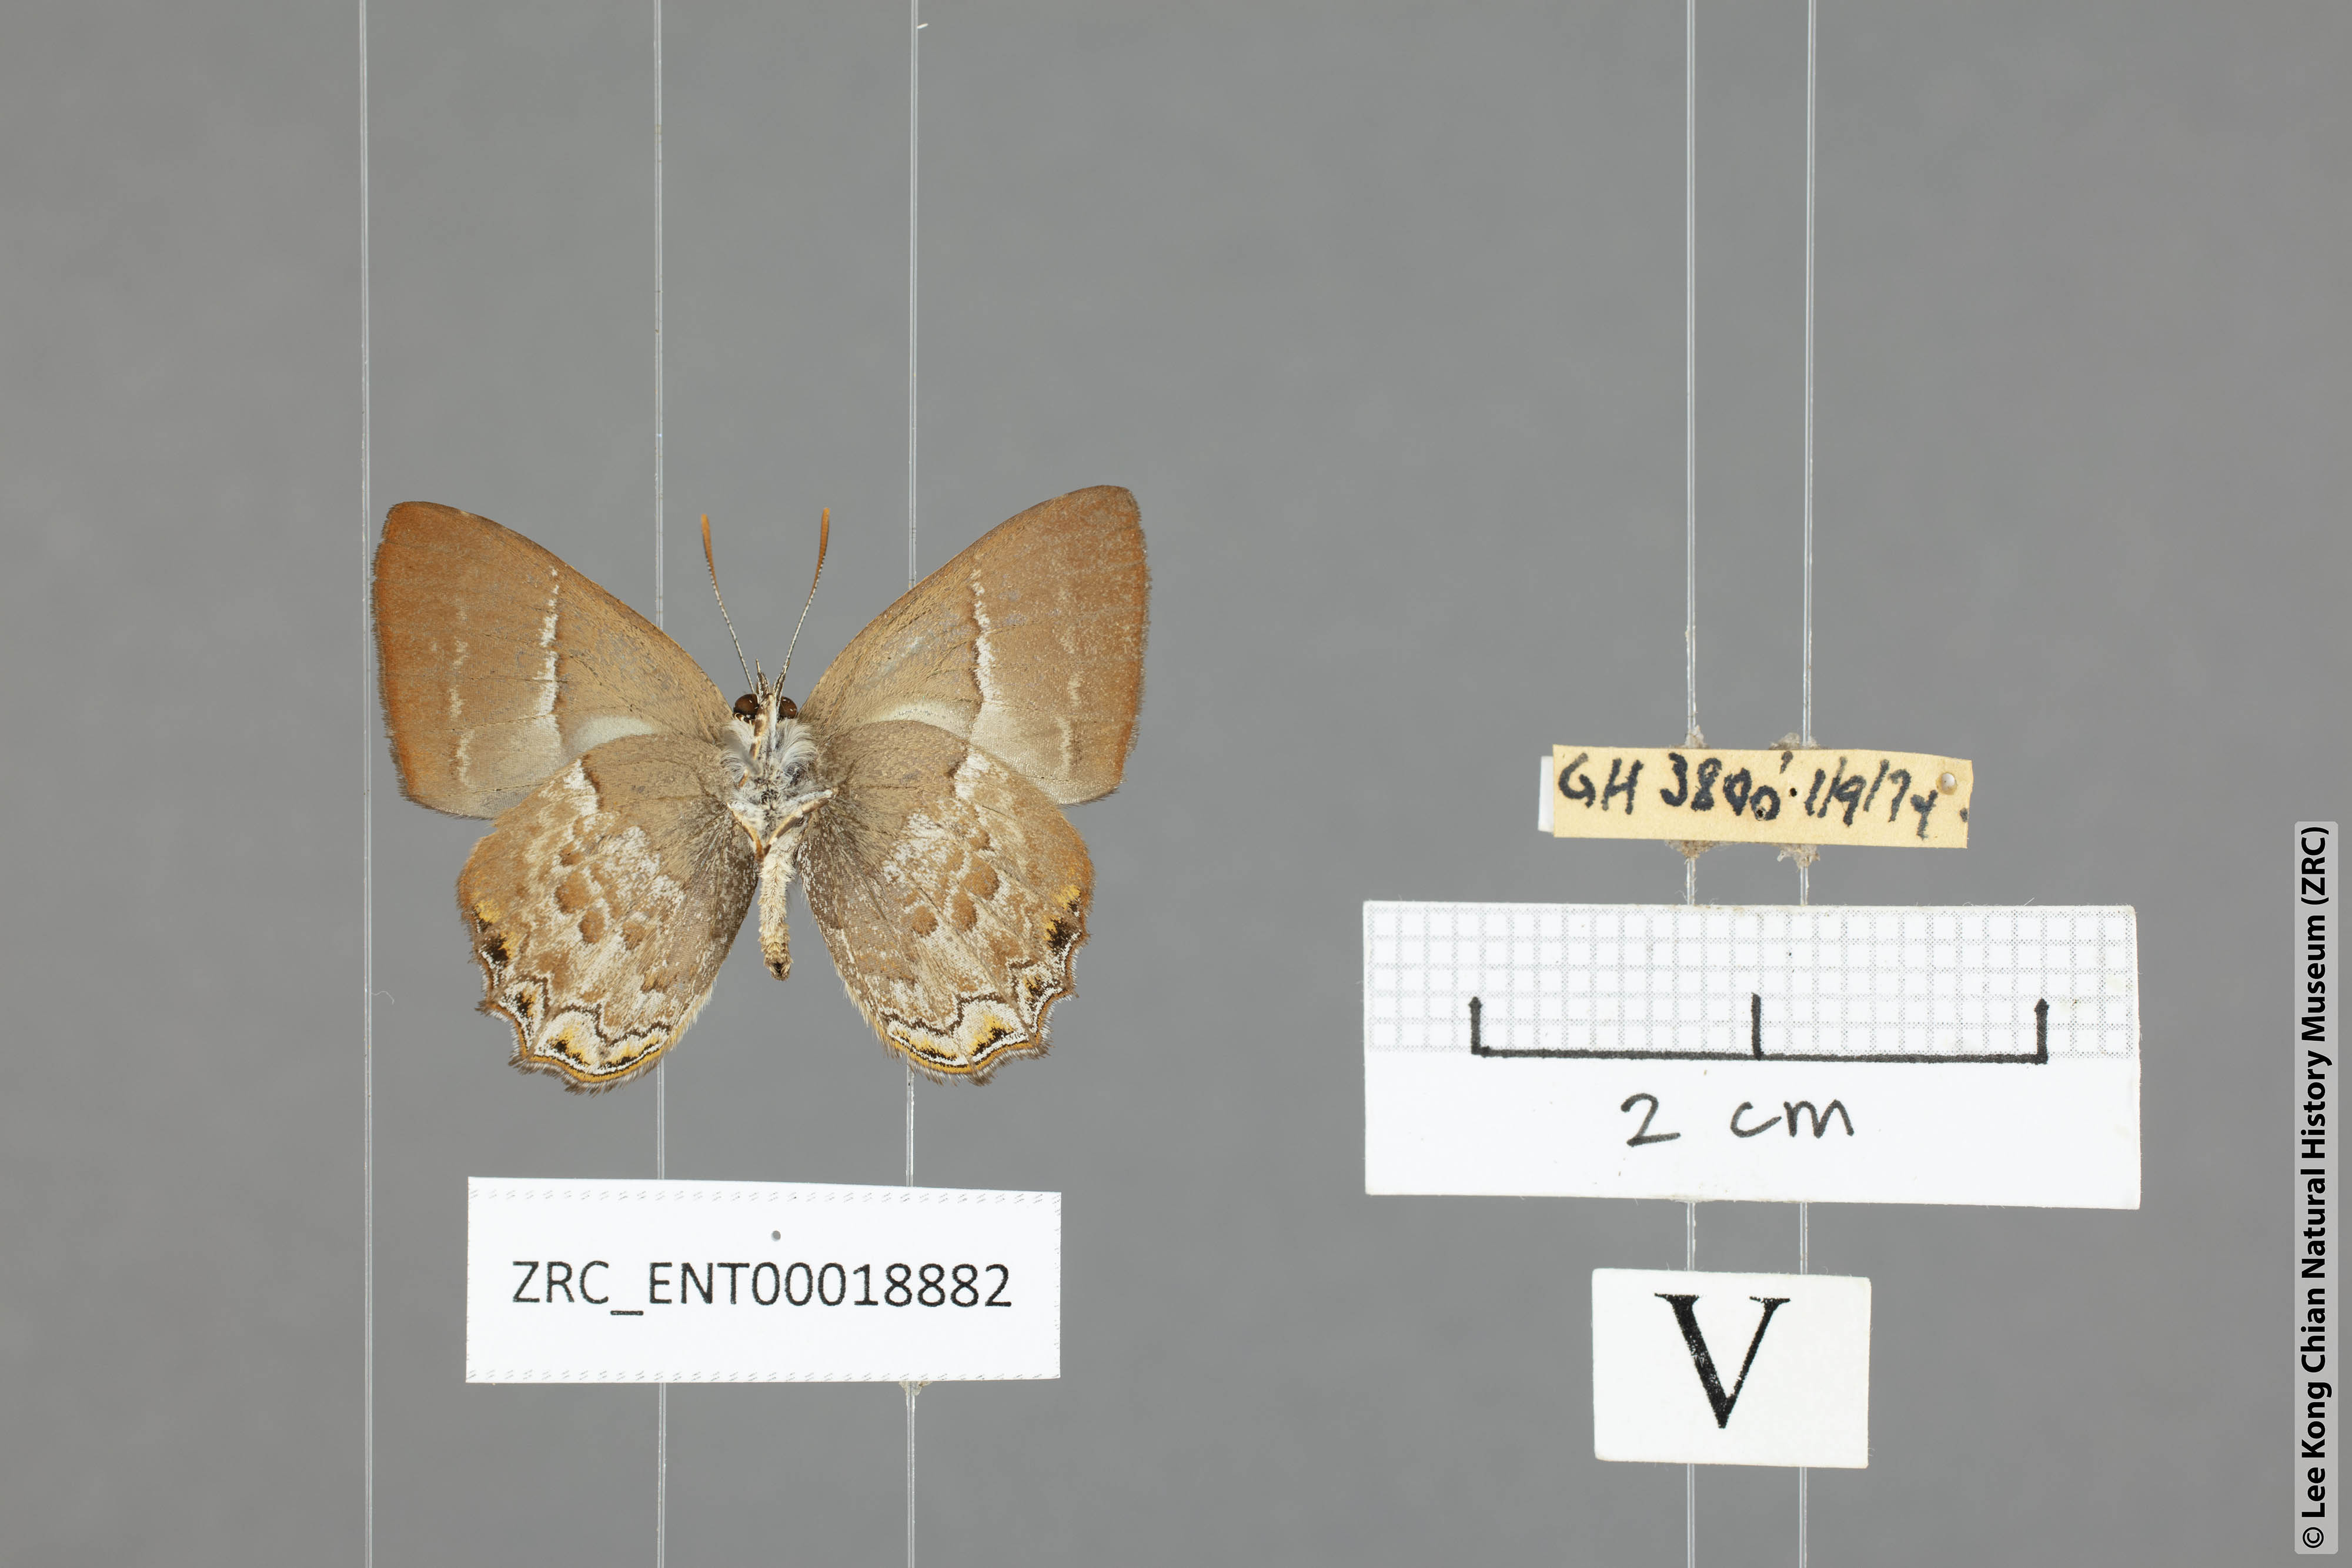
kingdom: Animalia
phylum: Arthropoda
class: Insecta
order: Lepidoptera
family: Lycaenidae
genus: Simiskina
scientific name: Simiskina pheretia
